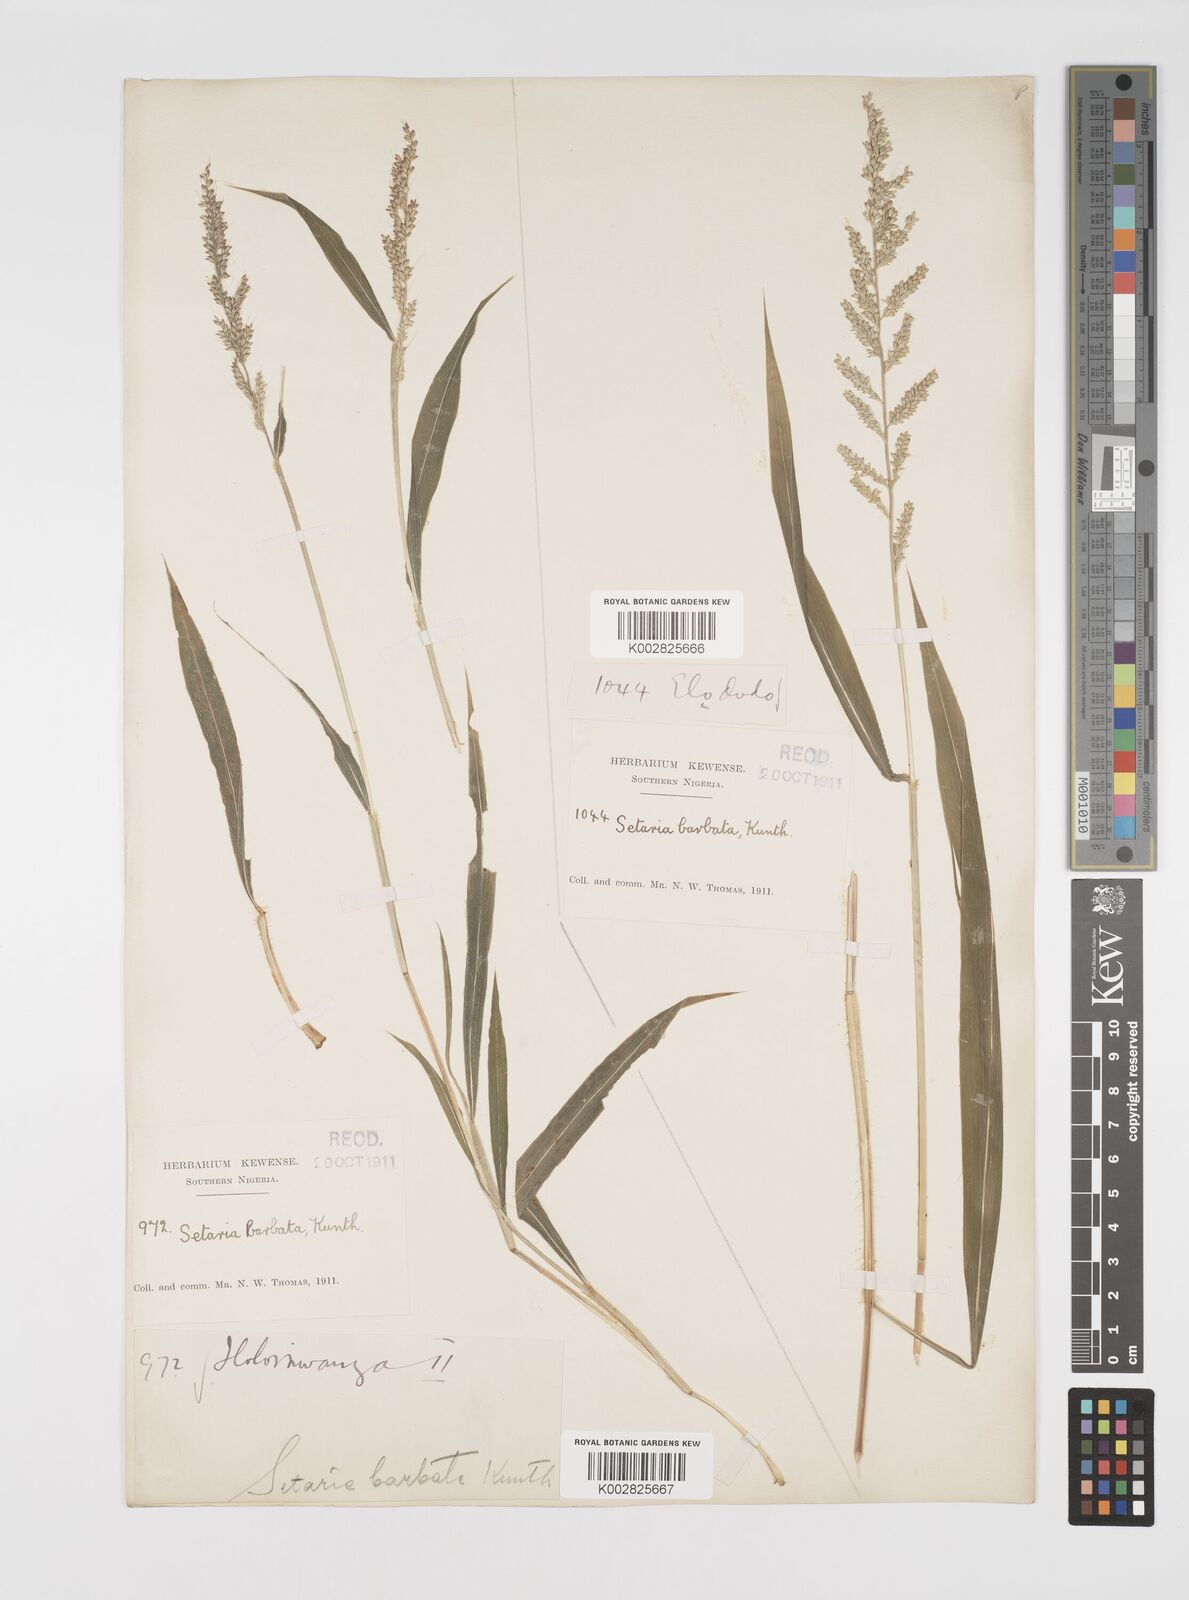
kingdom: Plantae
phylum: Tracheophyta
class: Liliopsida
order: Poales
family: Poaceae
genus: Setaria
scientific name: Setaria barbata
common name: East indian bristlegrass
